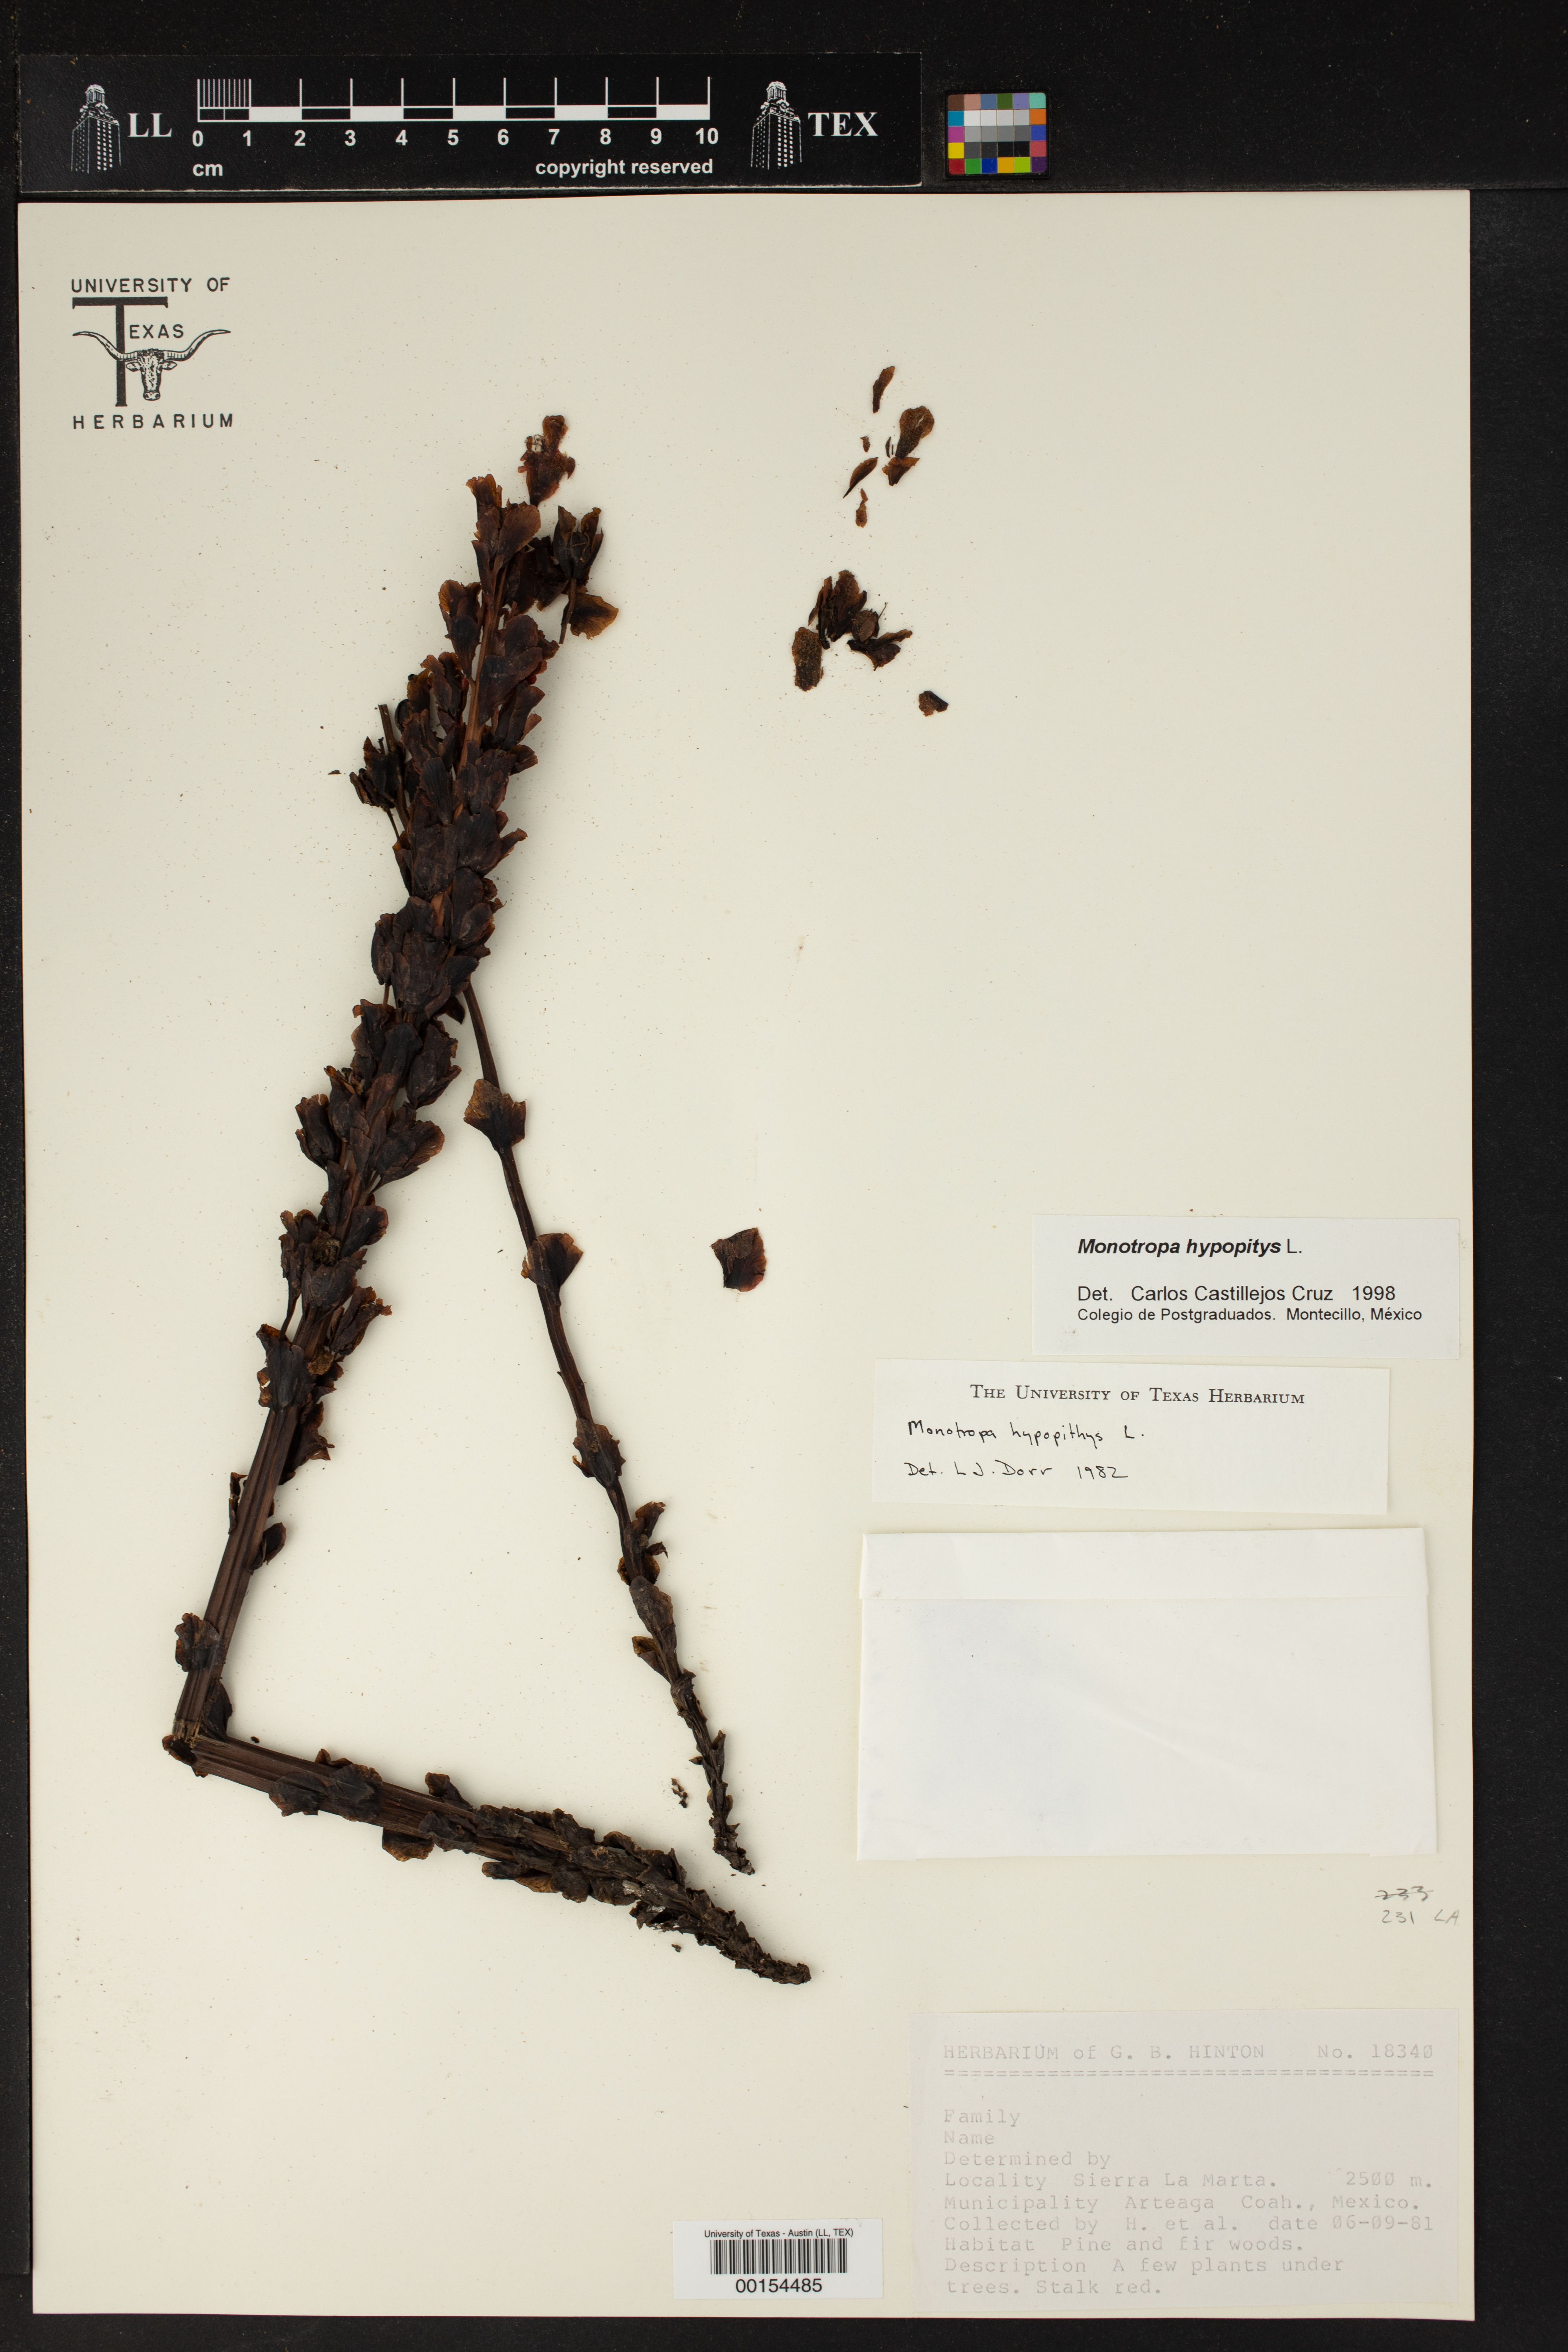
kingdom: Plantae
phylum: Tracheophyta
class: Magnoliopsida
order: Ericales
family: Ericaceae
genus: Hypopitys
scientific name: Hypopitys monotropa
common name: Yellow bird's-nest
